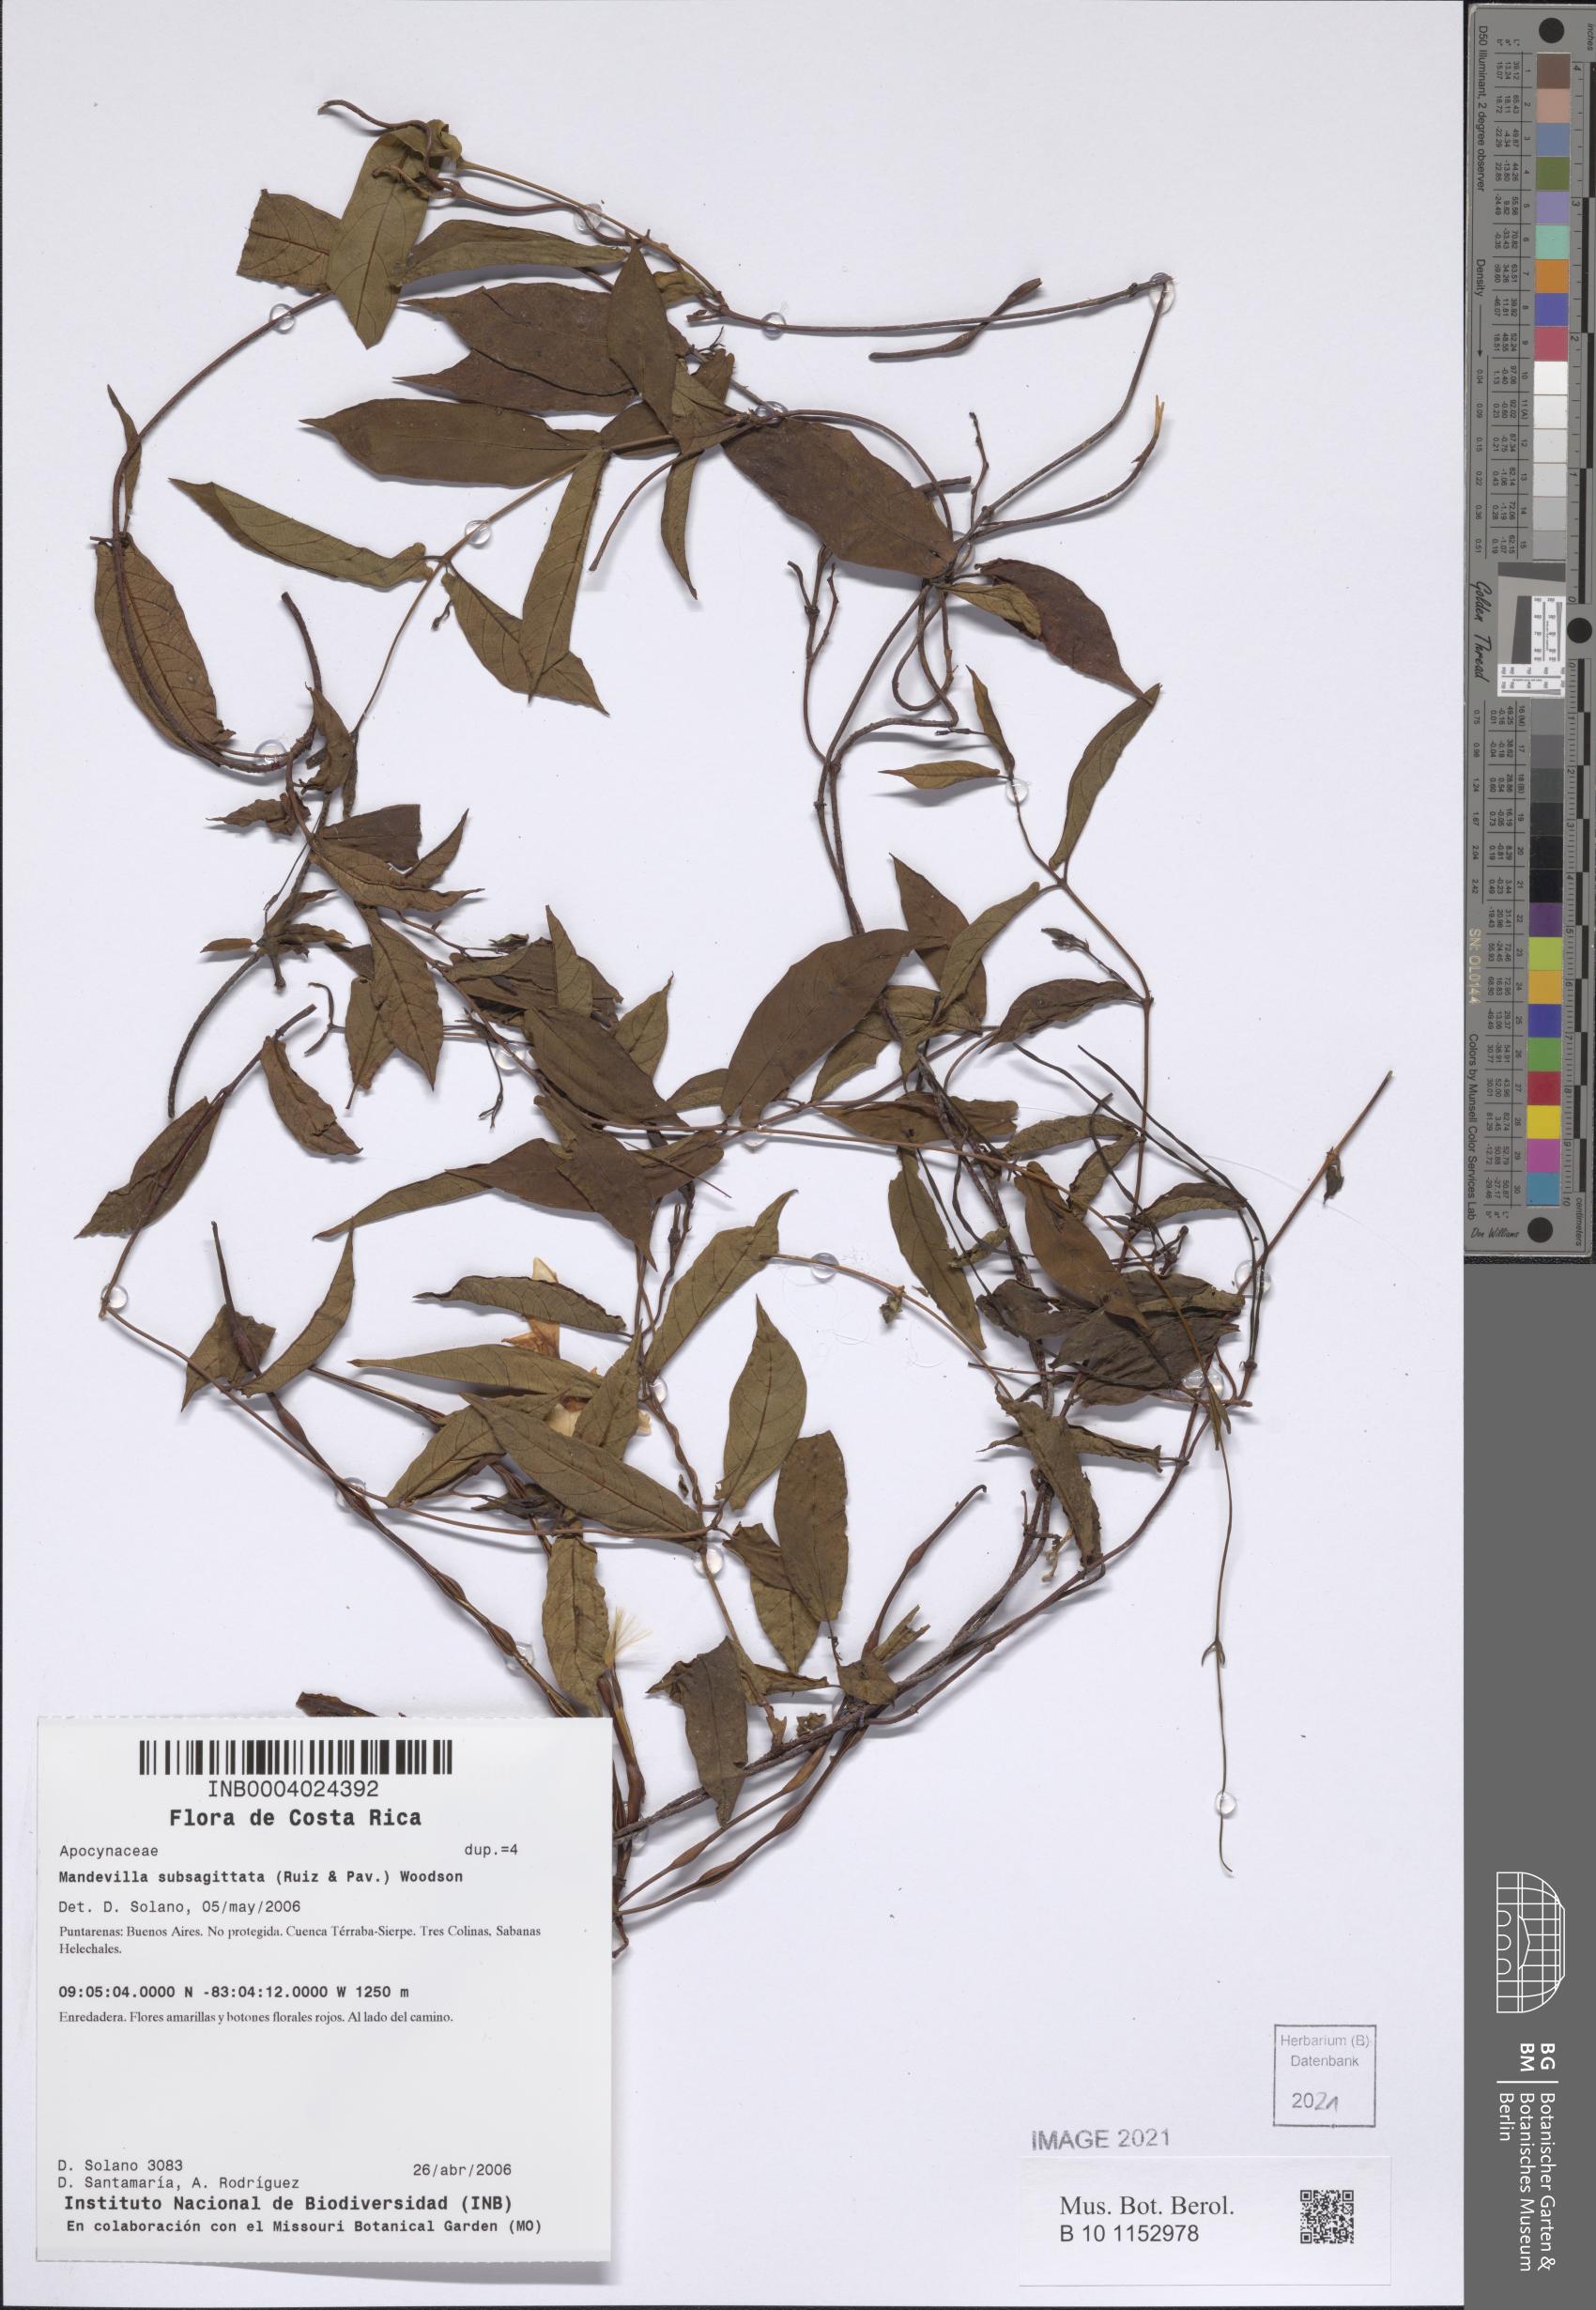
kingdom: Plantae
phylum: Tracheophyta
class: Magnoliopsida
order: Gentianales
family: Apocynaceae
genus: Mandevilla
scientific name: Mandevilla subsagittata
